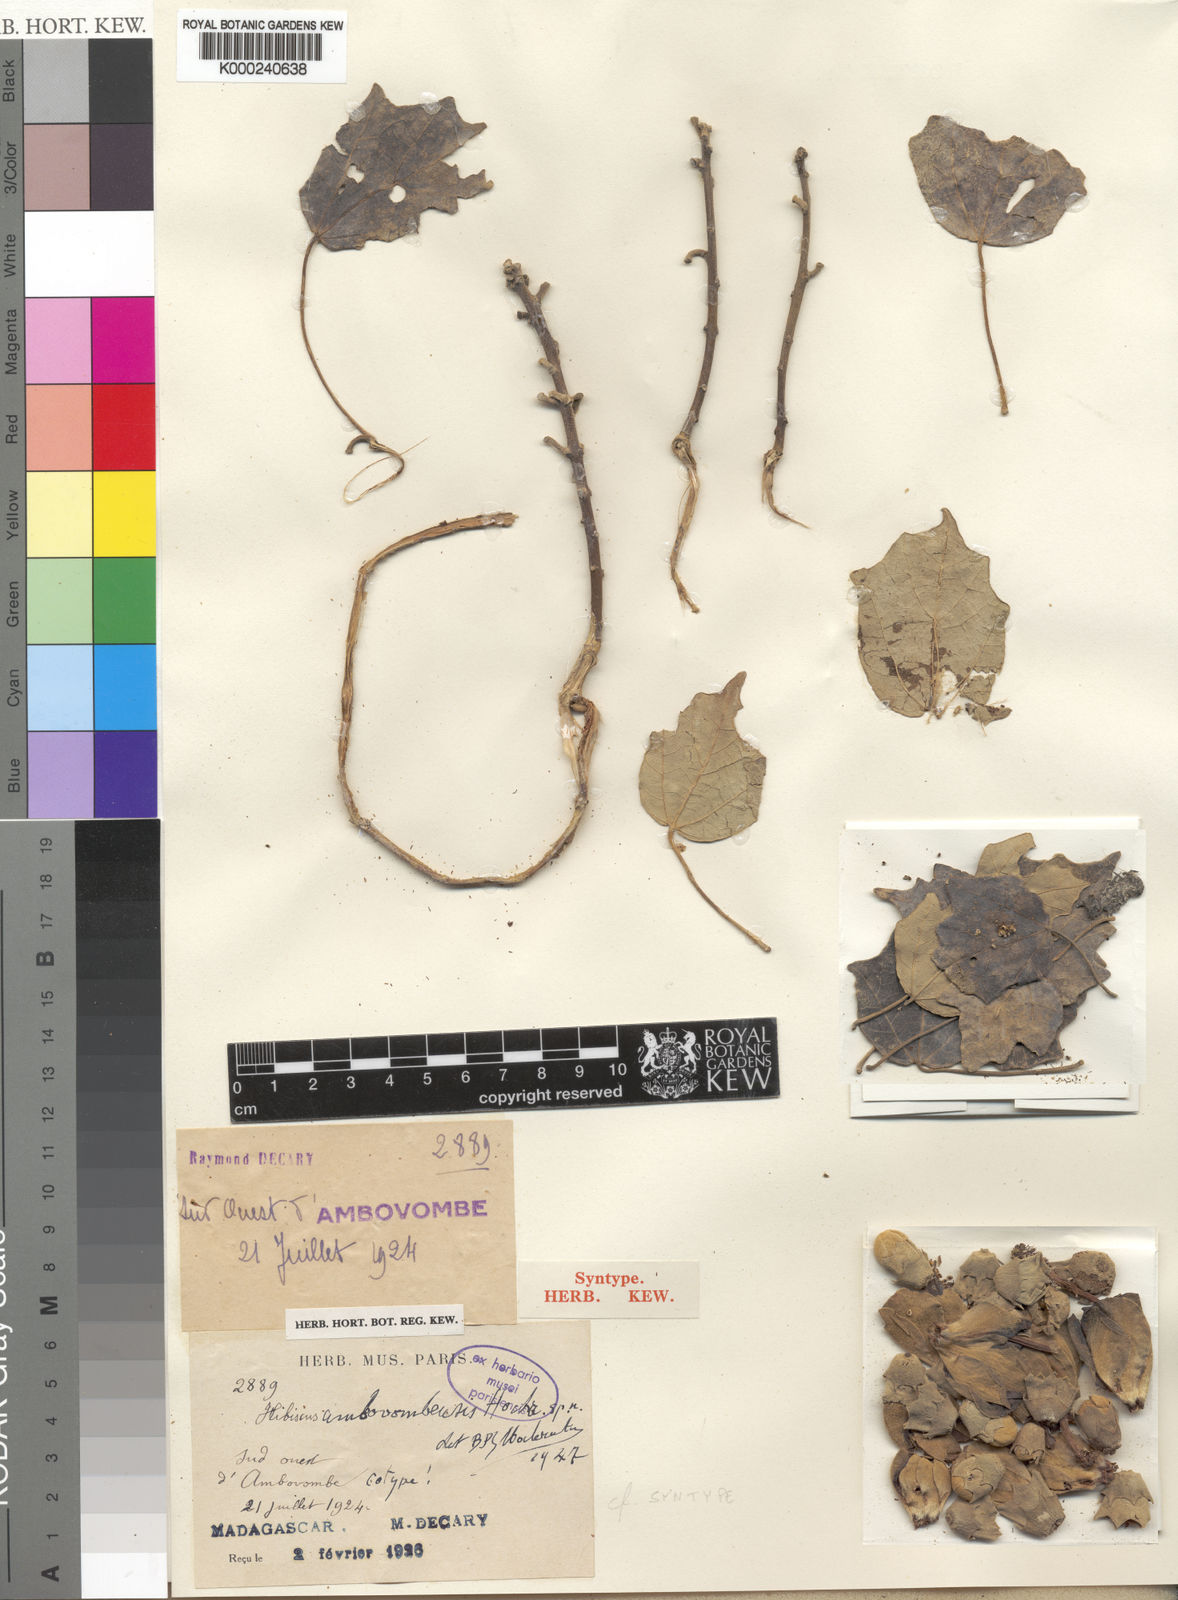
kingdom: Plantae
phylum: Tracheophyta
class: Magnoliopsida
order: Malvales
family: Malvaceae
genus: Hibiscus
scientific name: Hibiscus ambovombensis
